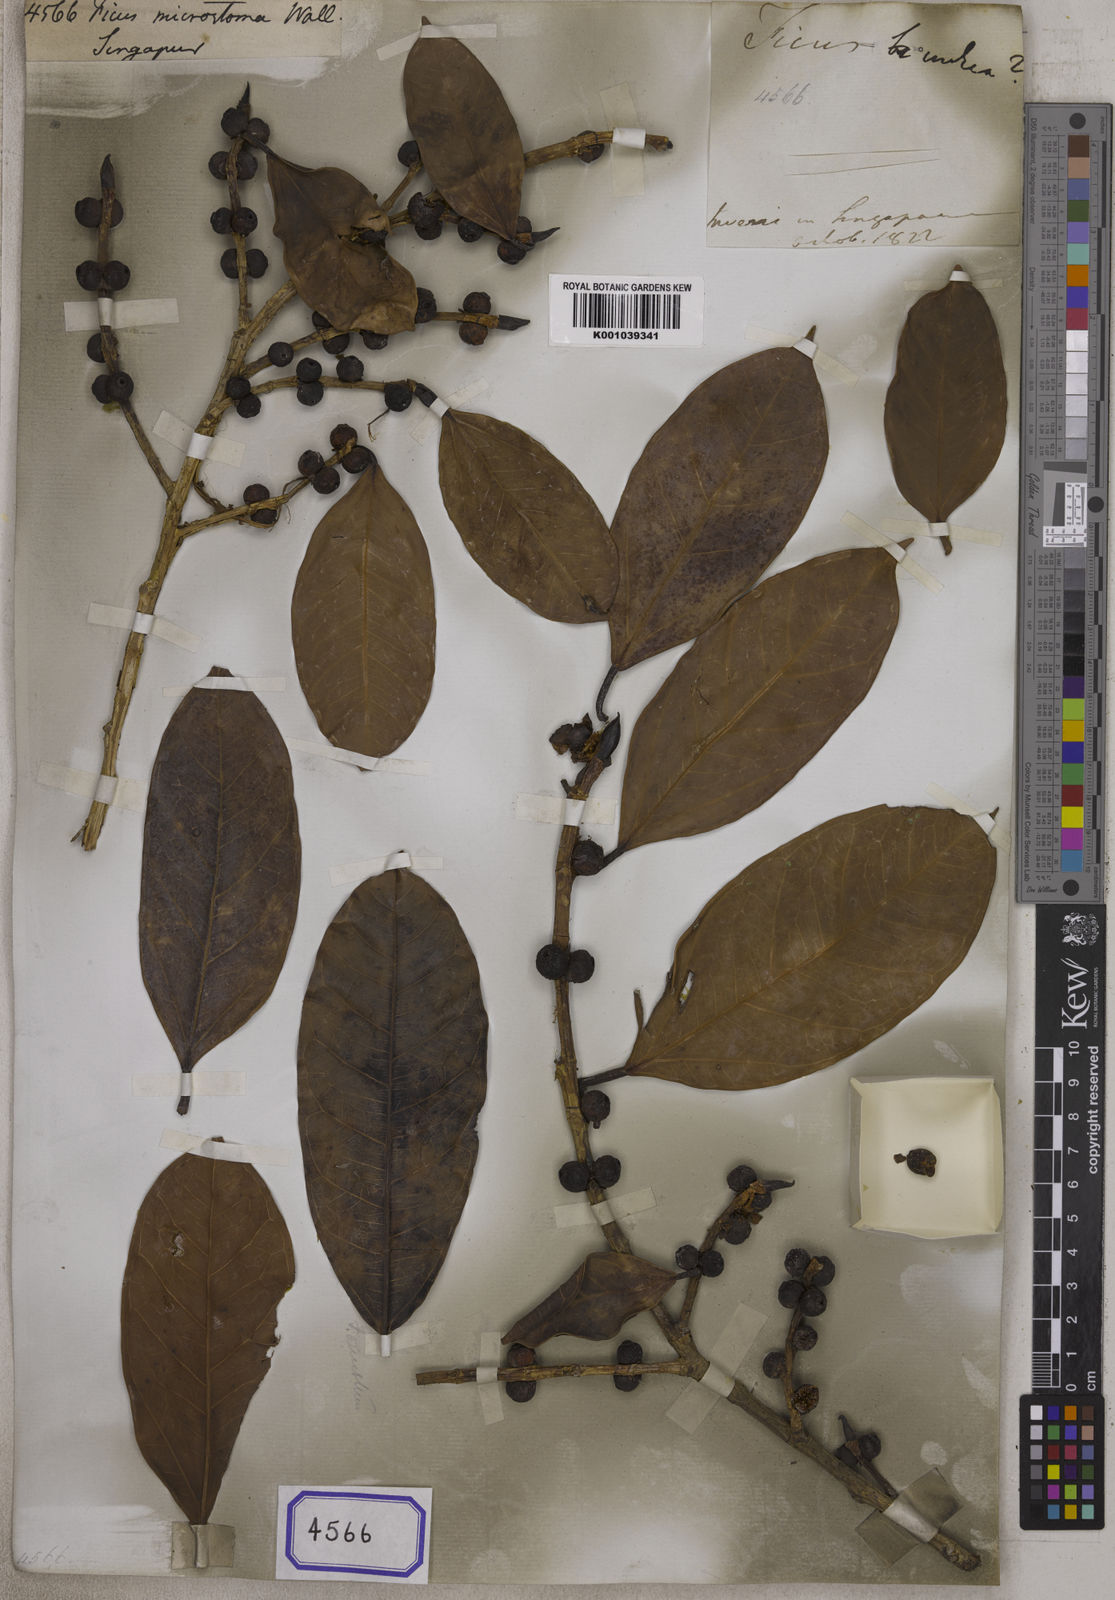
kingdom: Plantae
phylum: Tracheophyta
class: Magnoliopsida
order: Rosales
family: Moraceae
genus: Ficus
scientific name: Ficus
